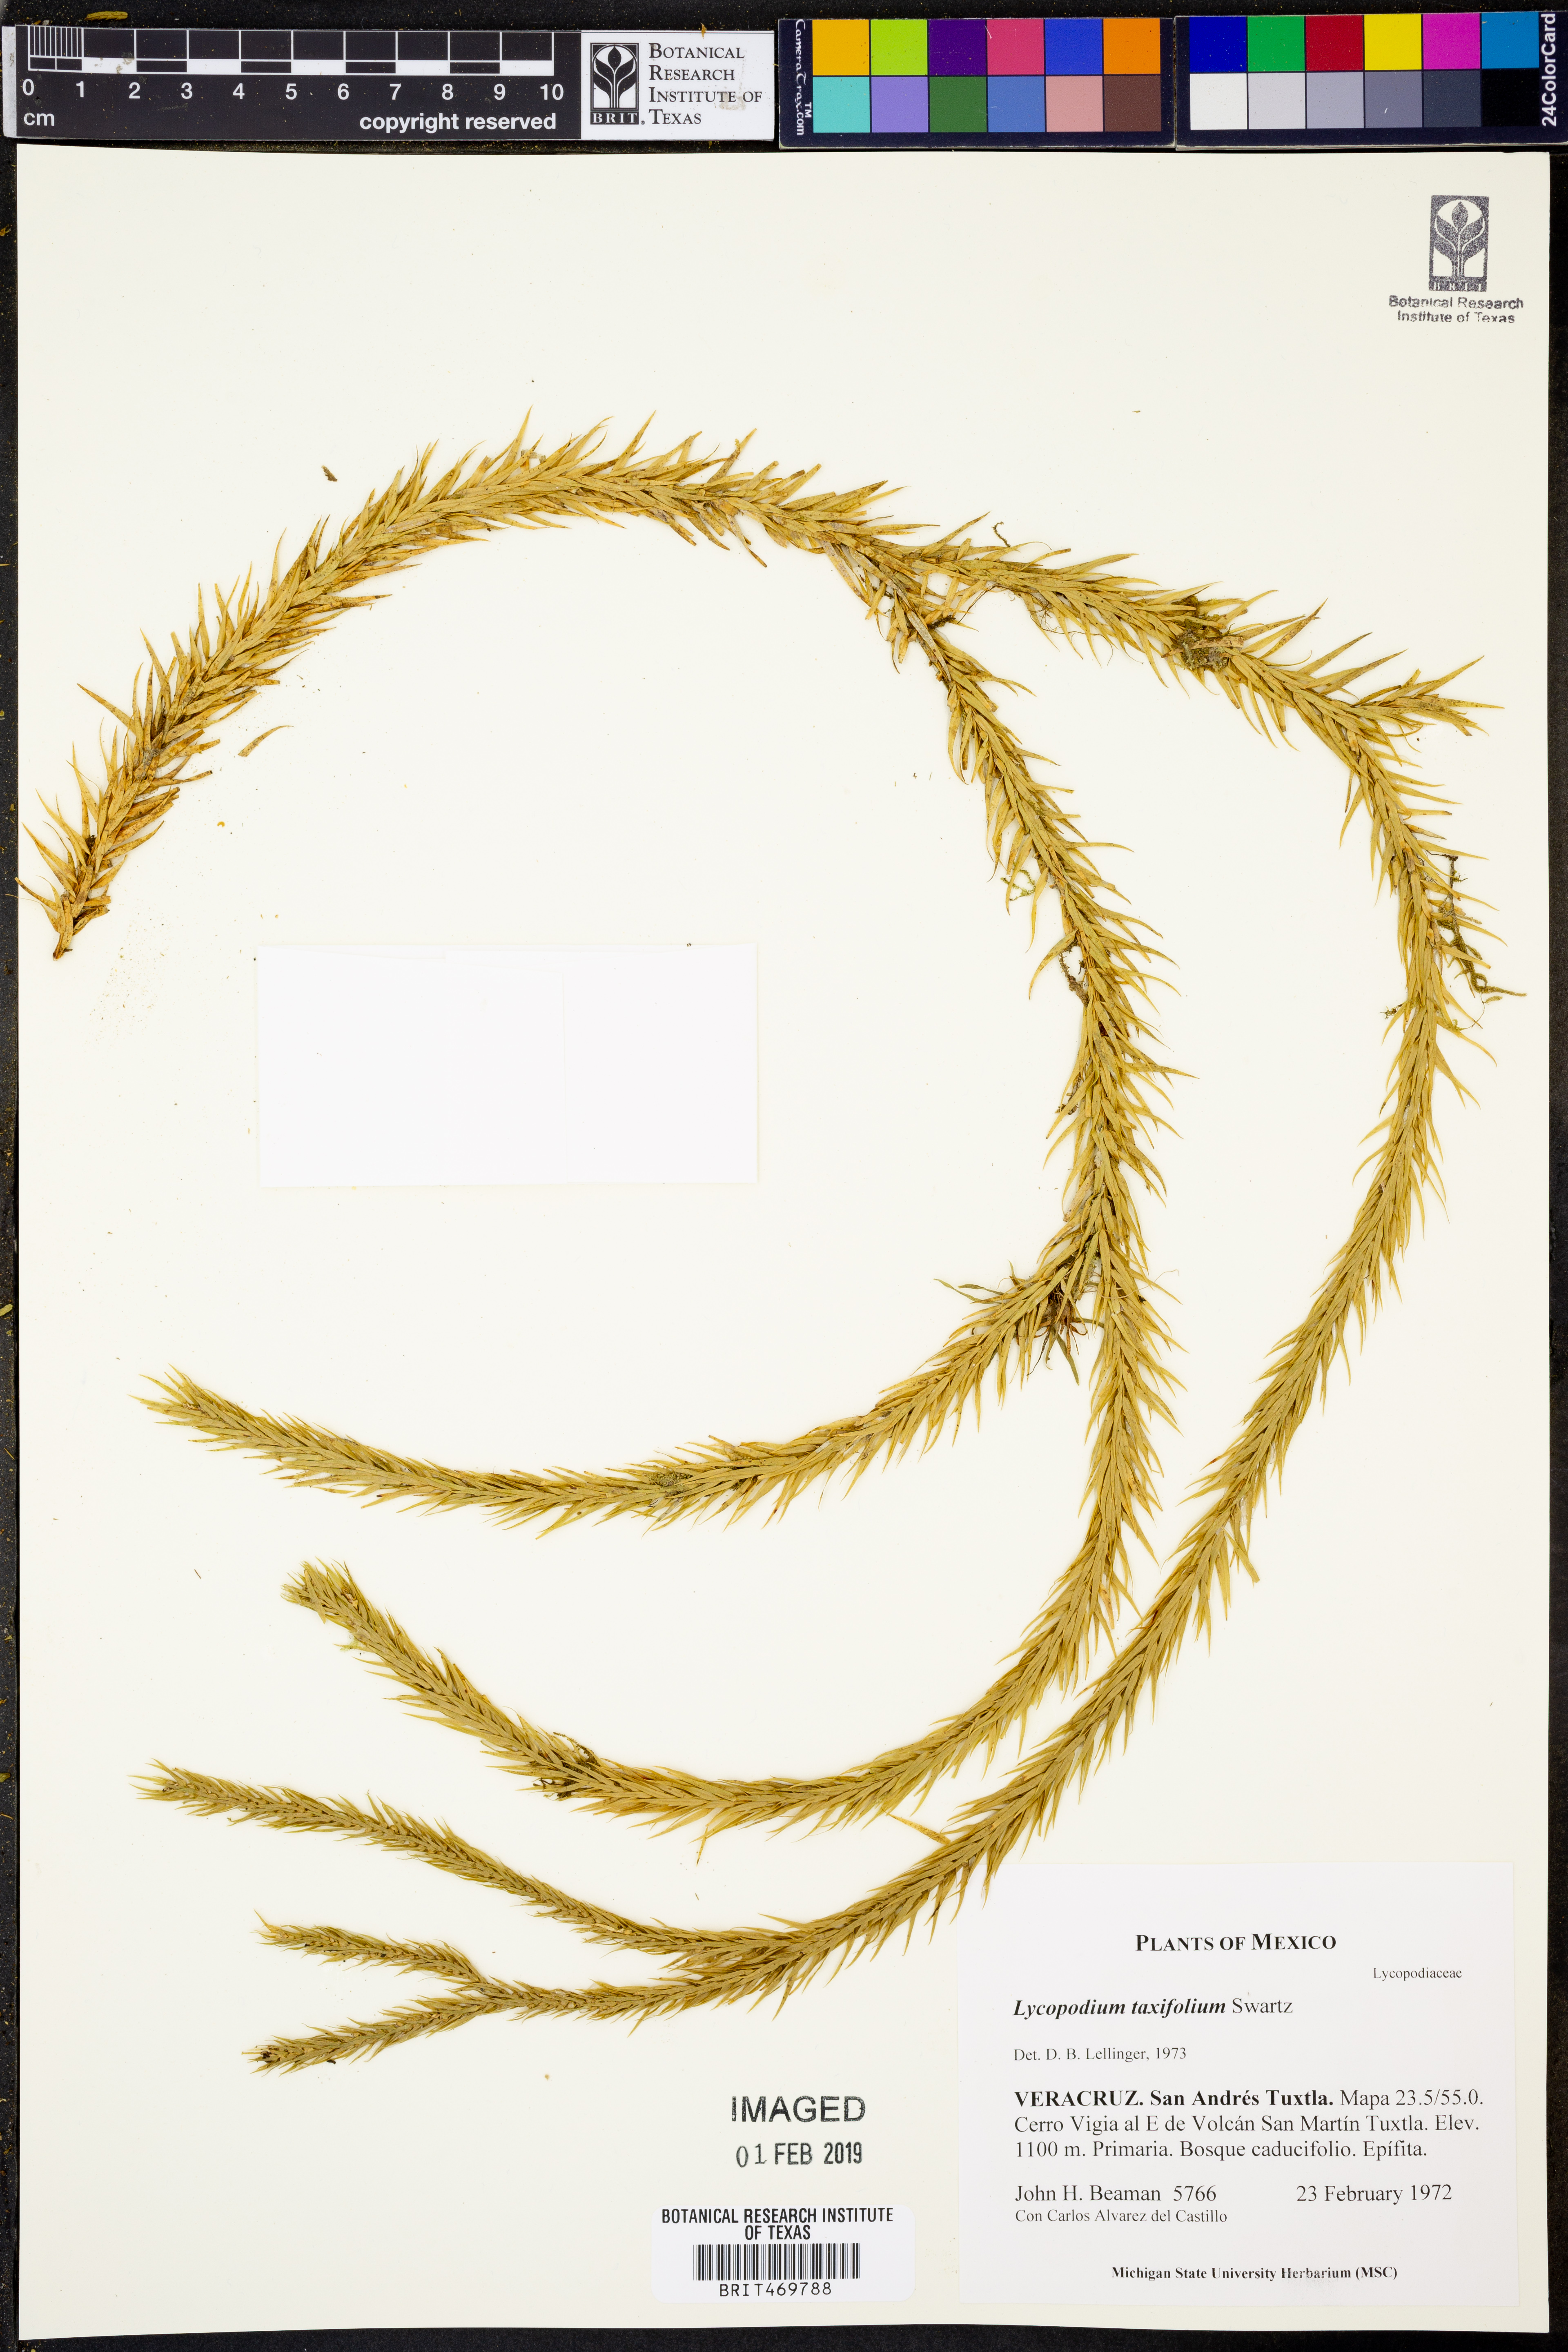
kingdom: Plantae
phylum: Tracheophyta
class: Lycopodiopsida
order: Lycopodiales
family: Lycopodiaceae
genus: Phlegmariurus
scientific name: Phlegmariurus taxifolius
